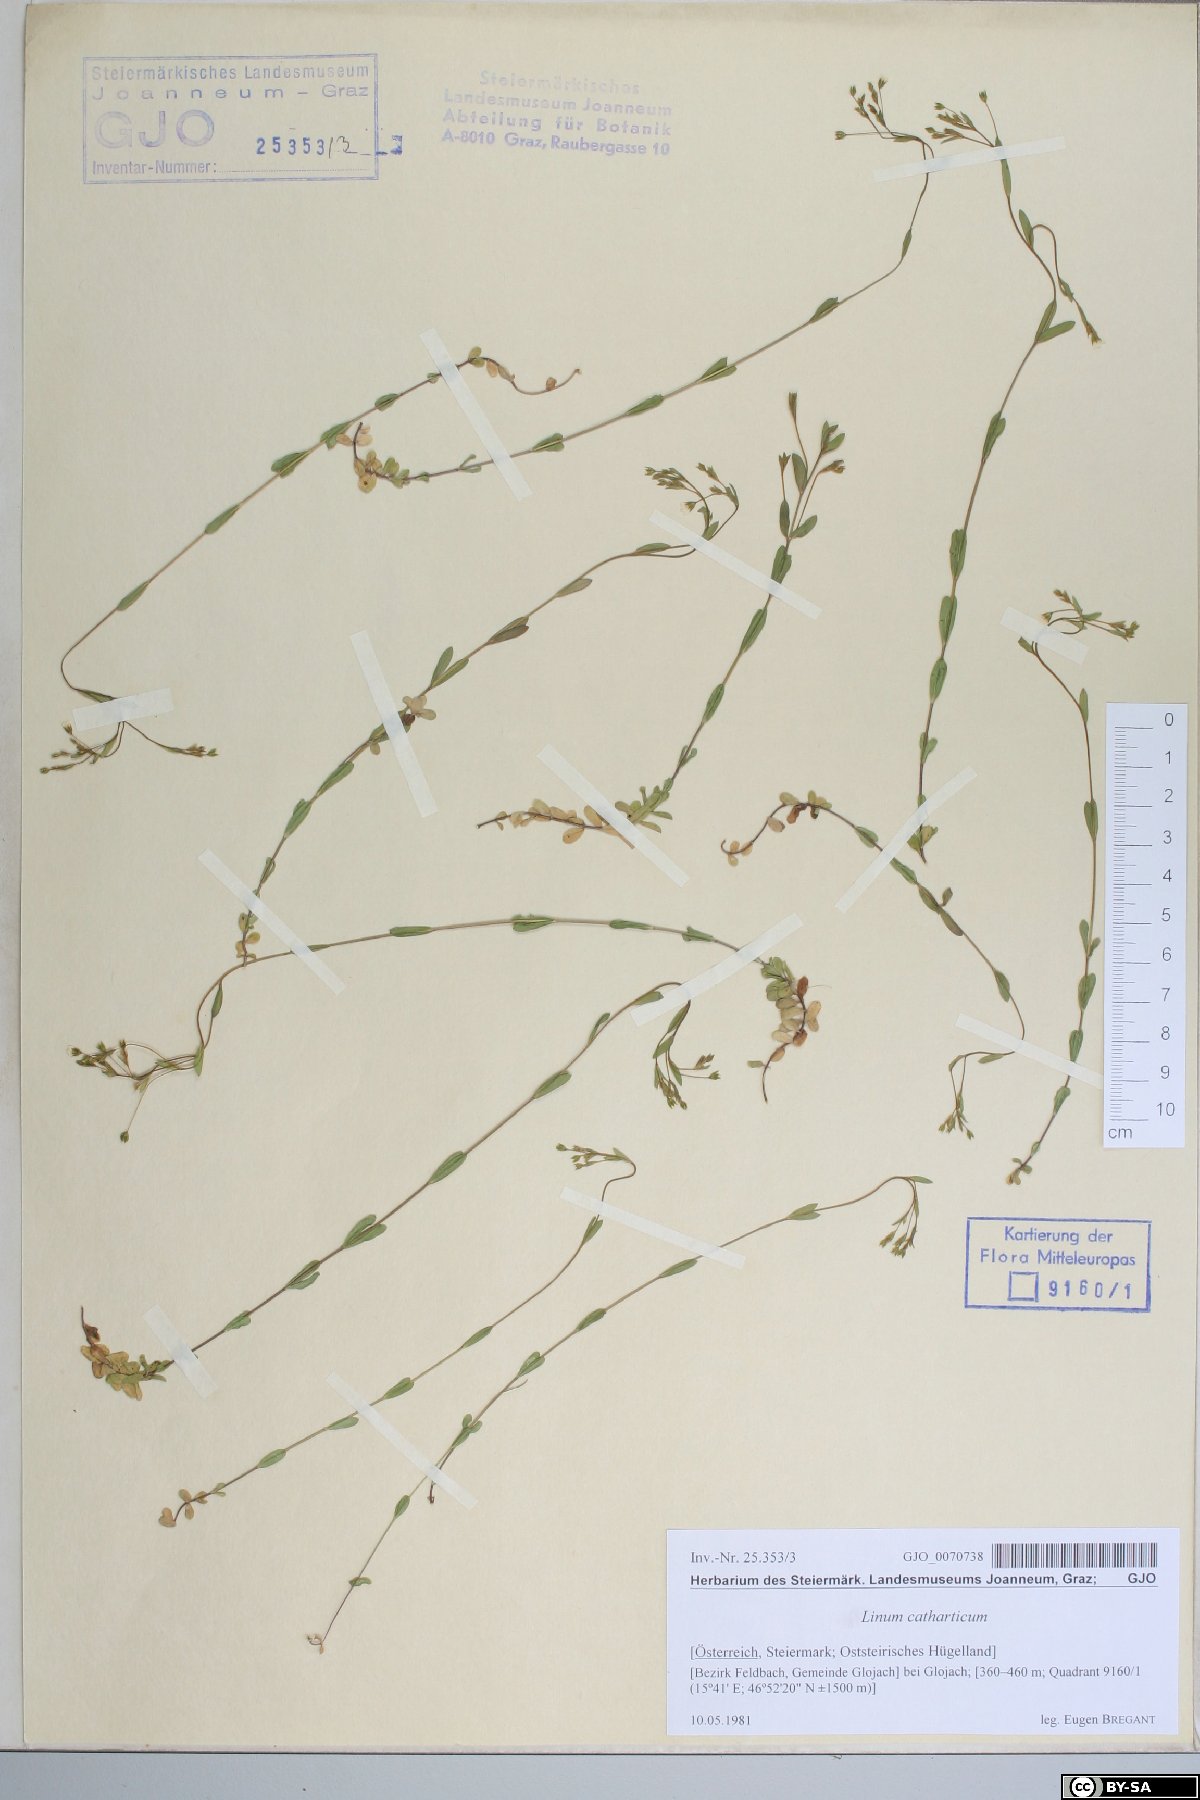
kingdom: Plantae
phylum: Tracheophyta
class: Magnoliopsida
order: Malpighiales
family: Linaceae
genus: Linum
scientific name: Linum catharticum
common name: Fairy flax
